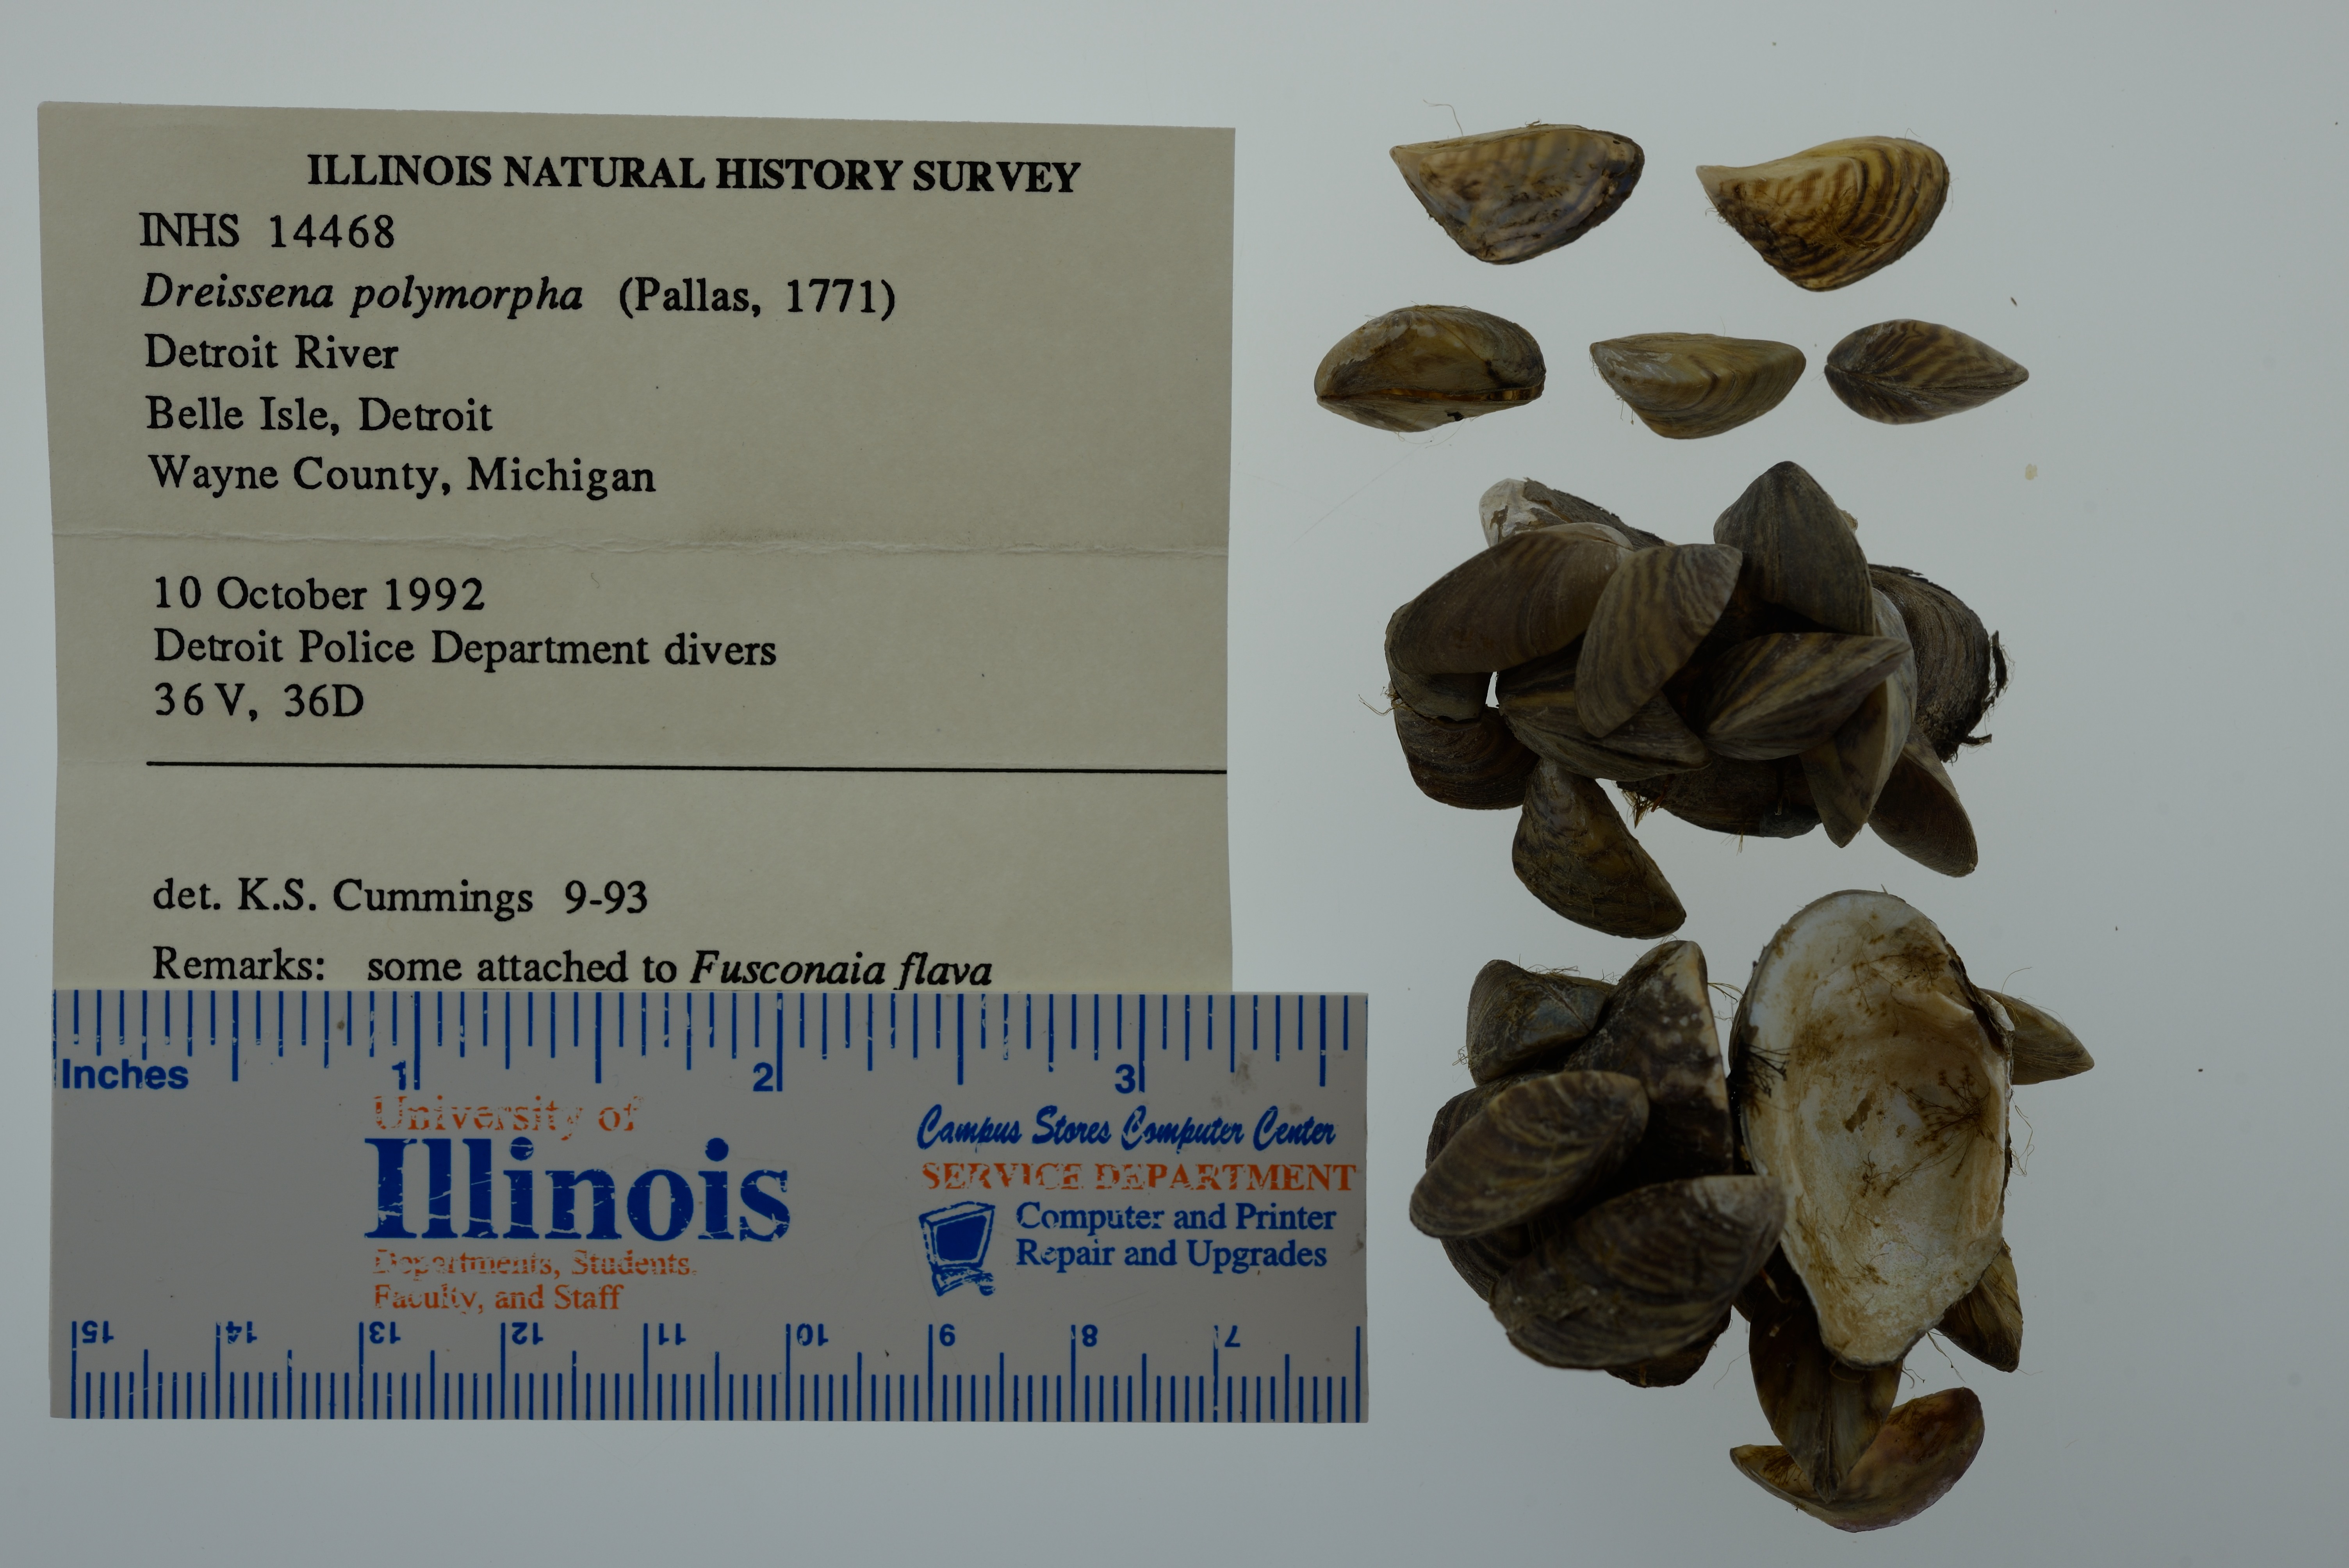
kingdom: Animalia
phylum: Mollusca
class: Bivalvia
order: Myida
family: Dreissenidae
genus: Dreissena
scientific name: Dreissena polymorpha
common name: Zebra mussel
